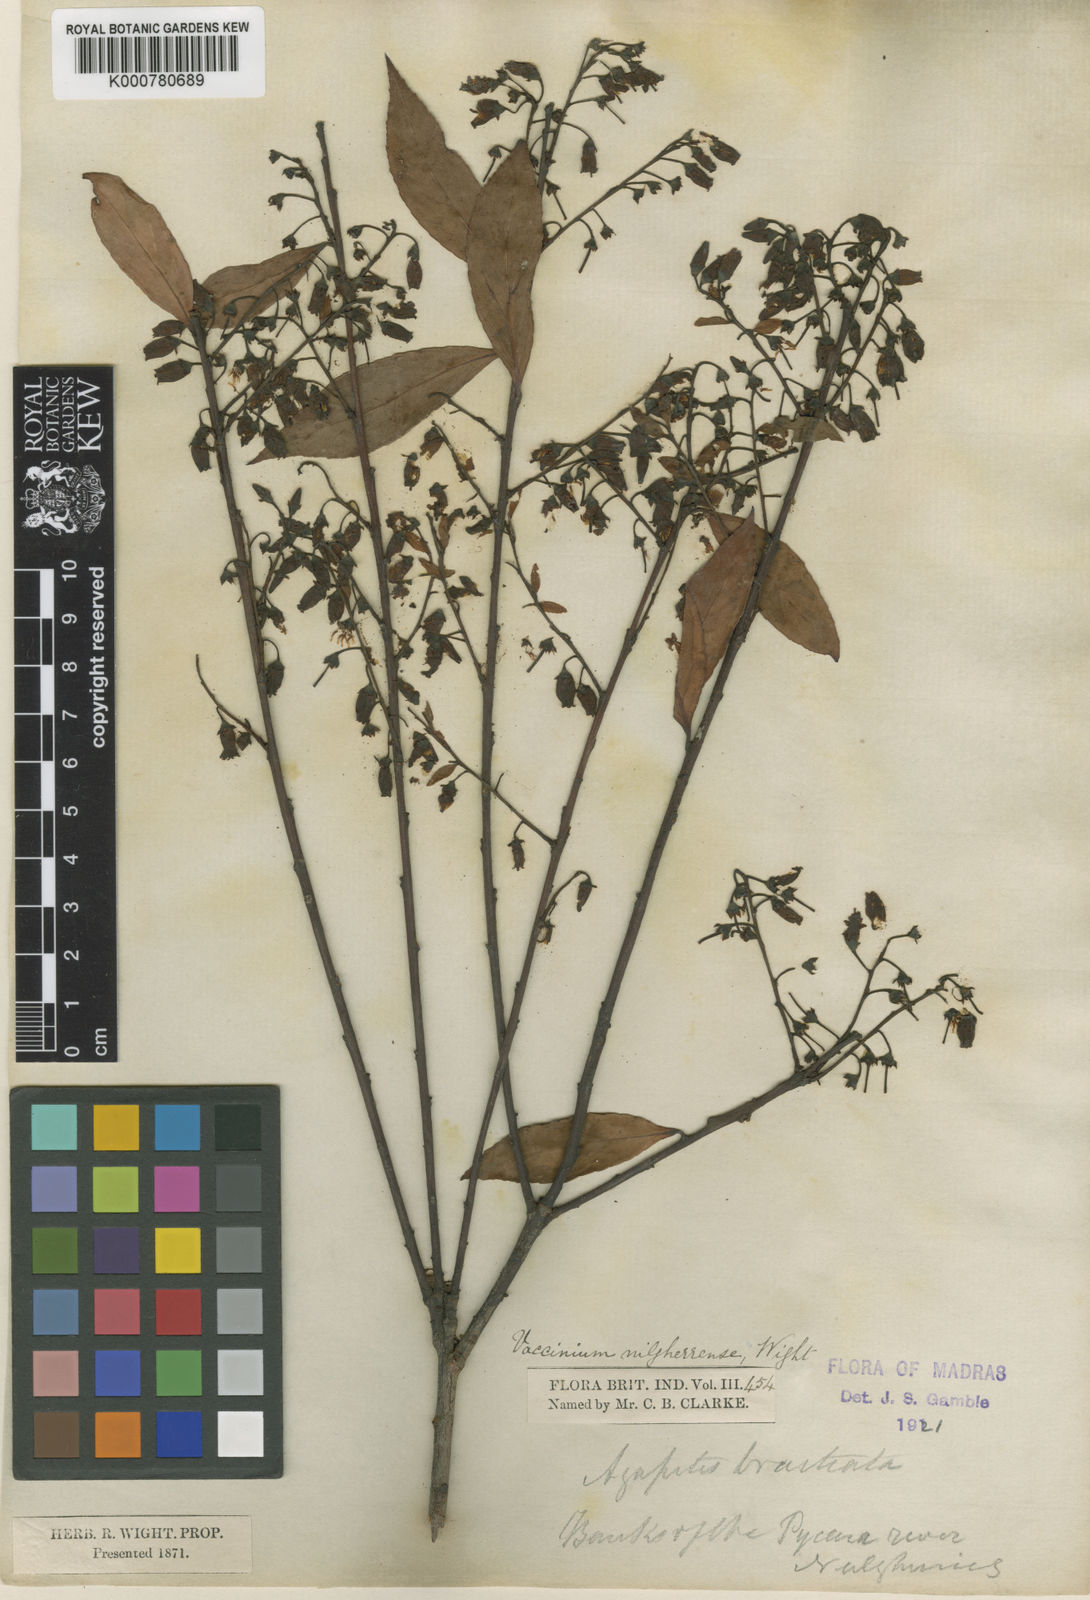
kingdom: Plantae
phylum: Tracheophyta
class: Magnoliopsida
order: Ericales
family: Ericaceae
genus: Vaccinium
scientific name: Vaccinium neilgherrense
